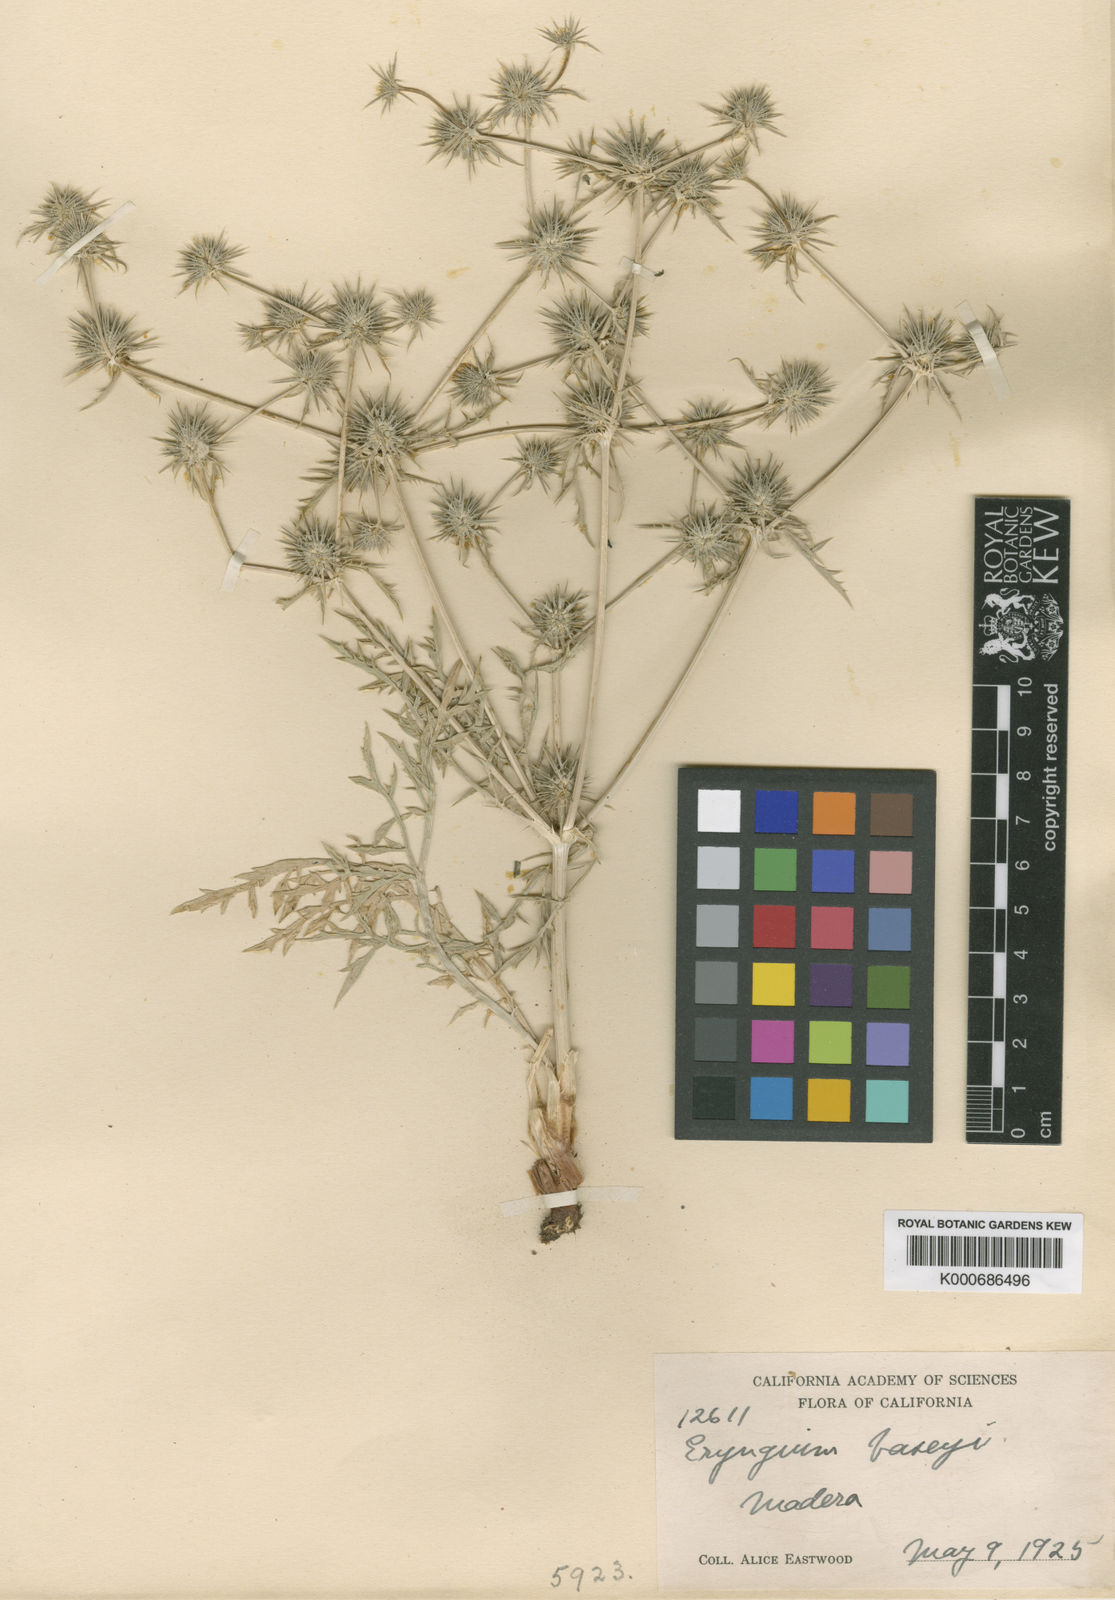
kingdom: Plantae
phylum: Tracheophyta
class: Magnoliopsida
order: Apiales
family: Apiaceae
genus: Eryngium
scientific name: Eryngium vaseyi
